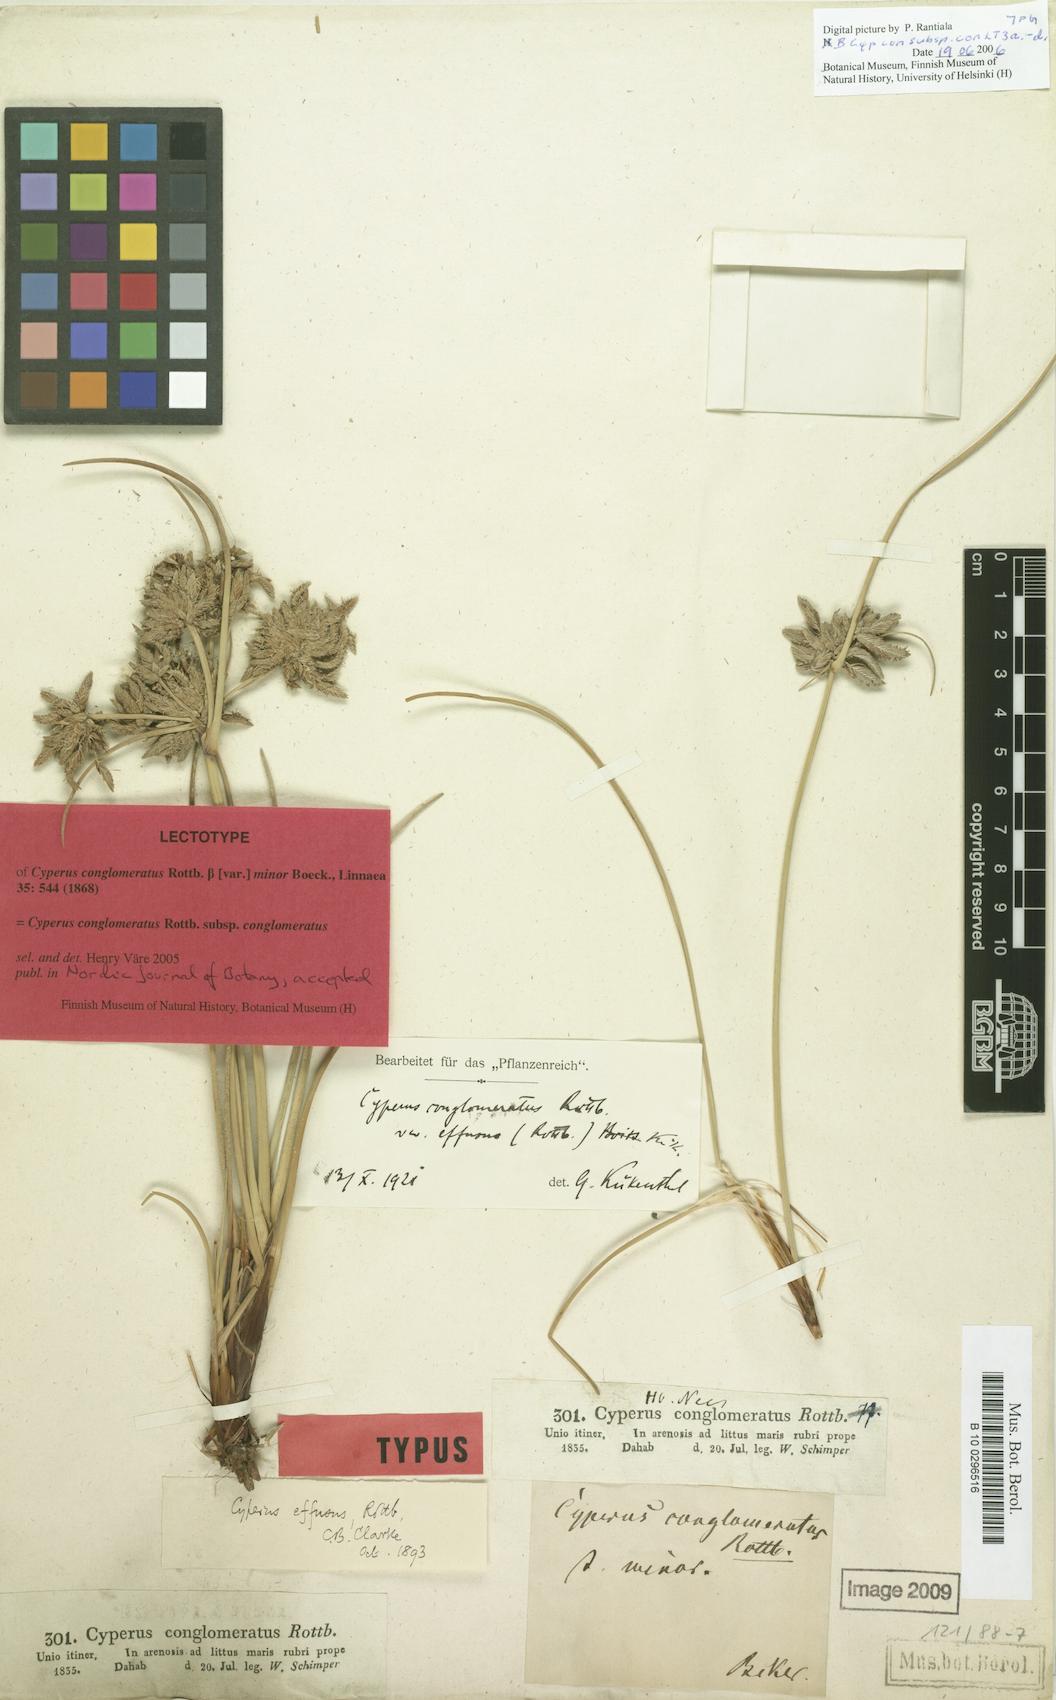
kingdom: Plantae
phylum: Tracheophyta
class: Liliopsida
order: Poales
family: Cyperaceae
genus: Cyperus
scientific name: Cyperus conglomeratus
